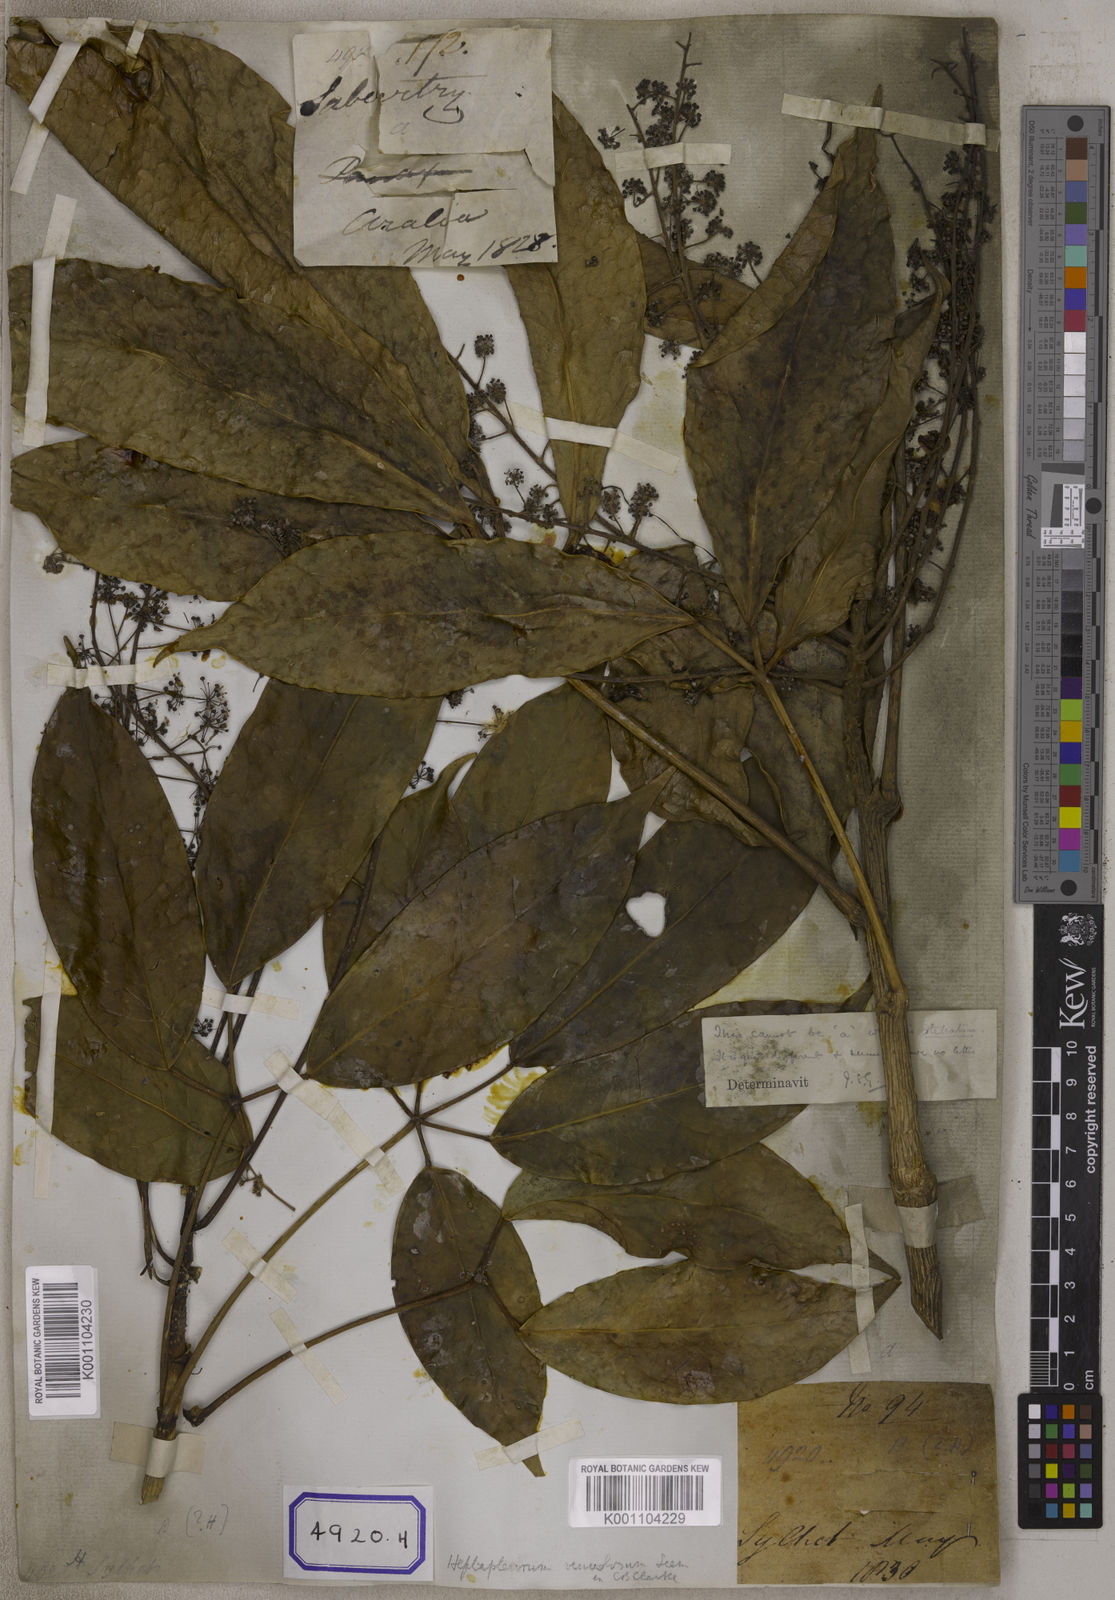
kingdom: Plantae
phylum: Tracheophyta
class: Magnoliopsida
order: Apiales
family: Araliaceae
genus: Hedera
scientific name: Hedera
